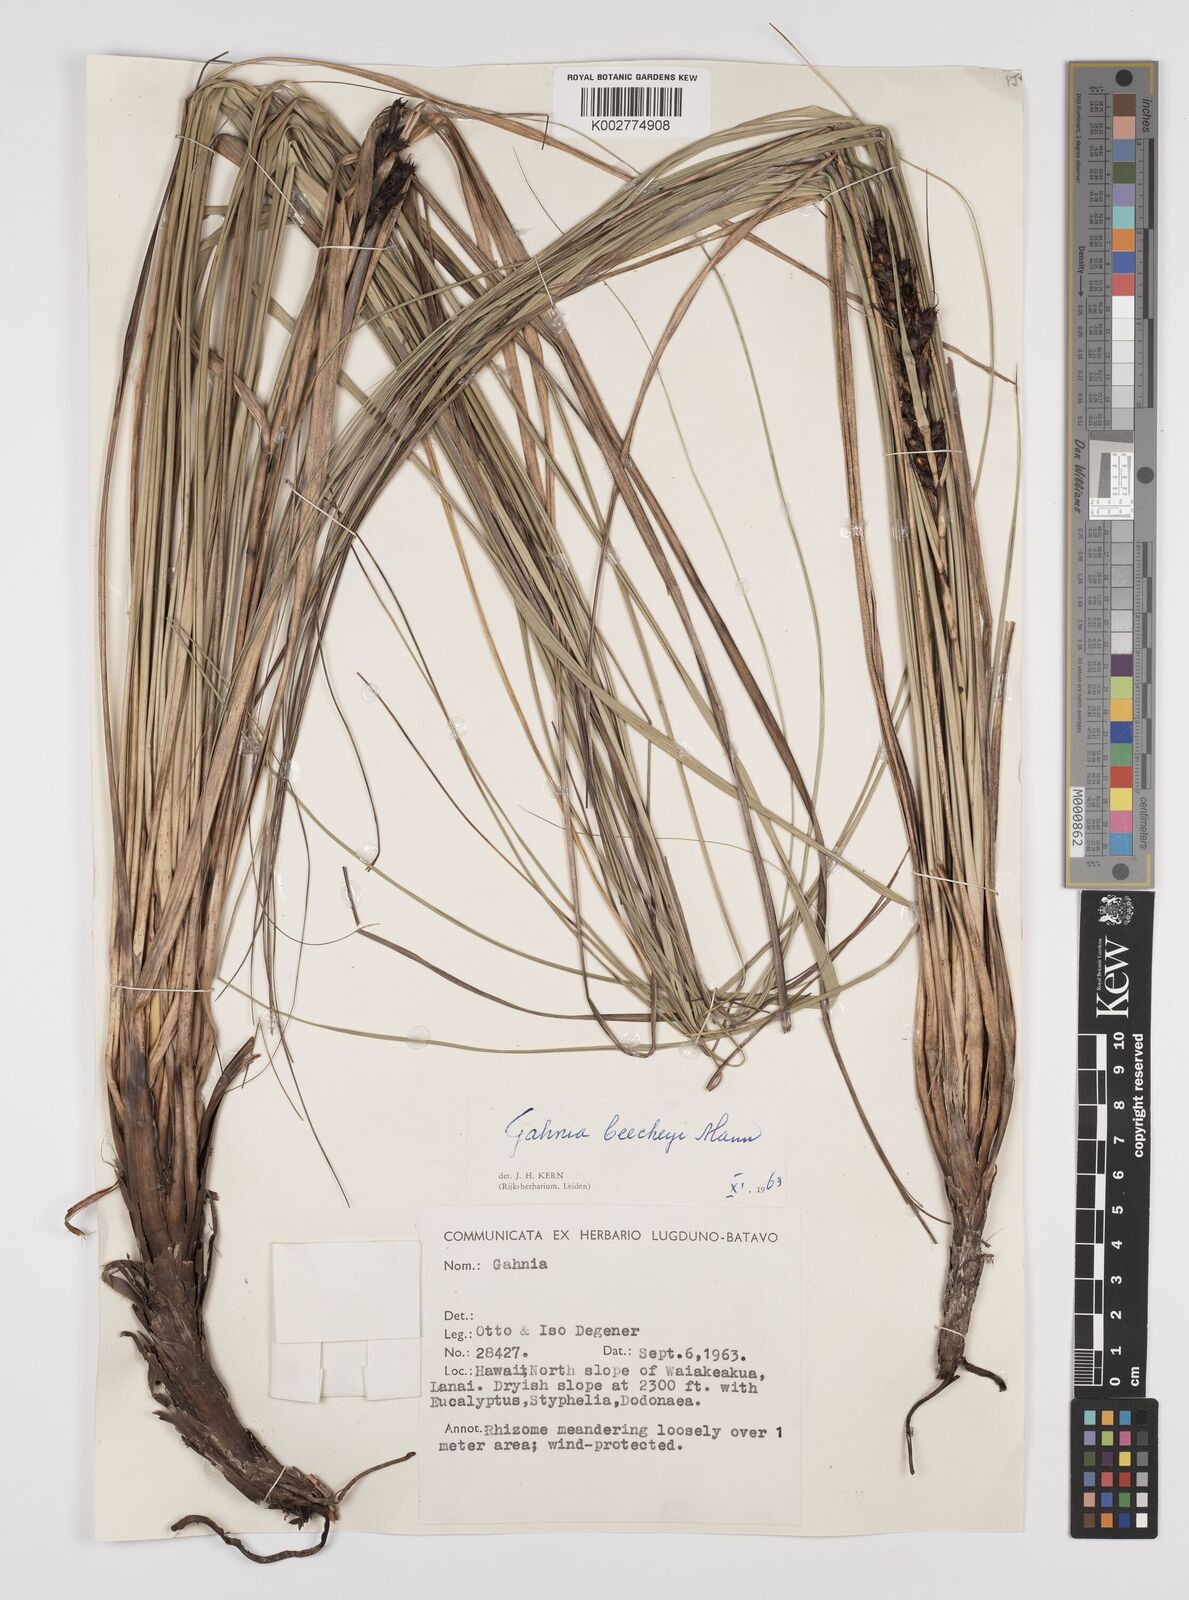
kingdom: Plantae
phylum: Tracheophyta
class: Liliopsida
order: Poales
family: Cyperaceae
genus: Gahnia
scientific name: Gahnia beecheyi
